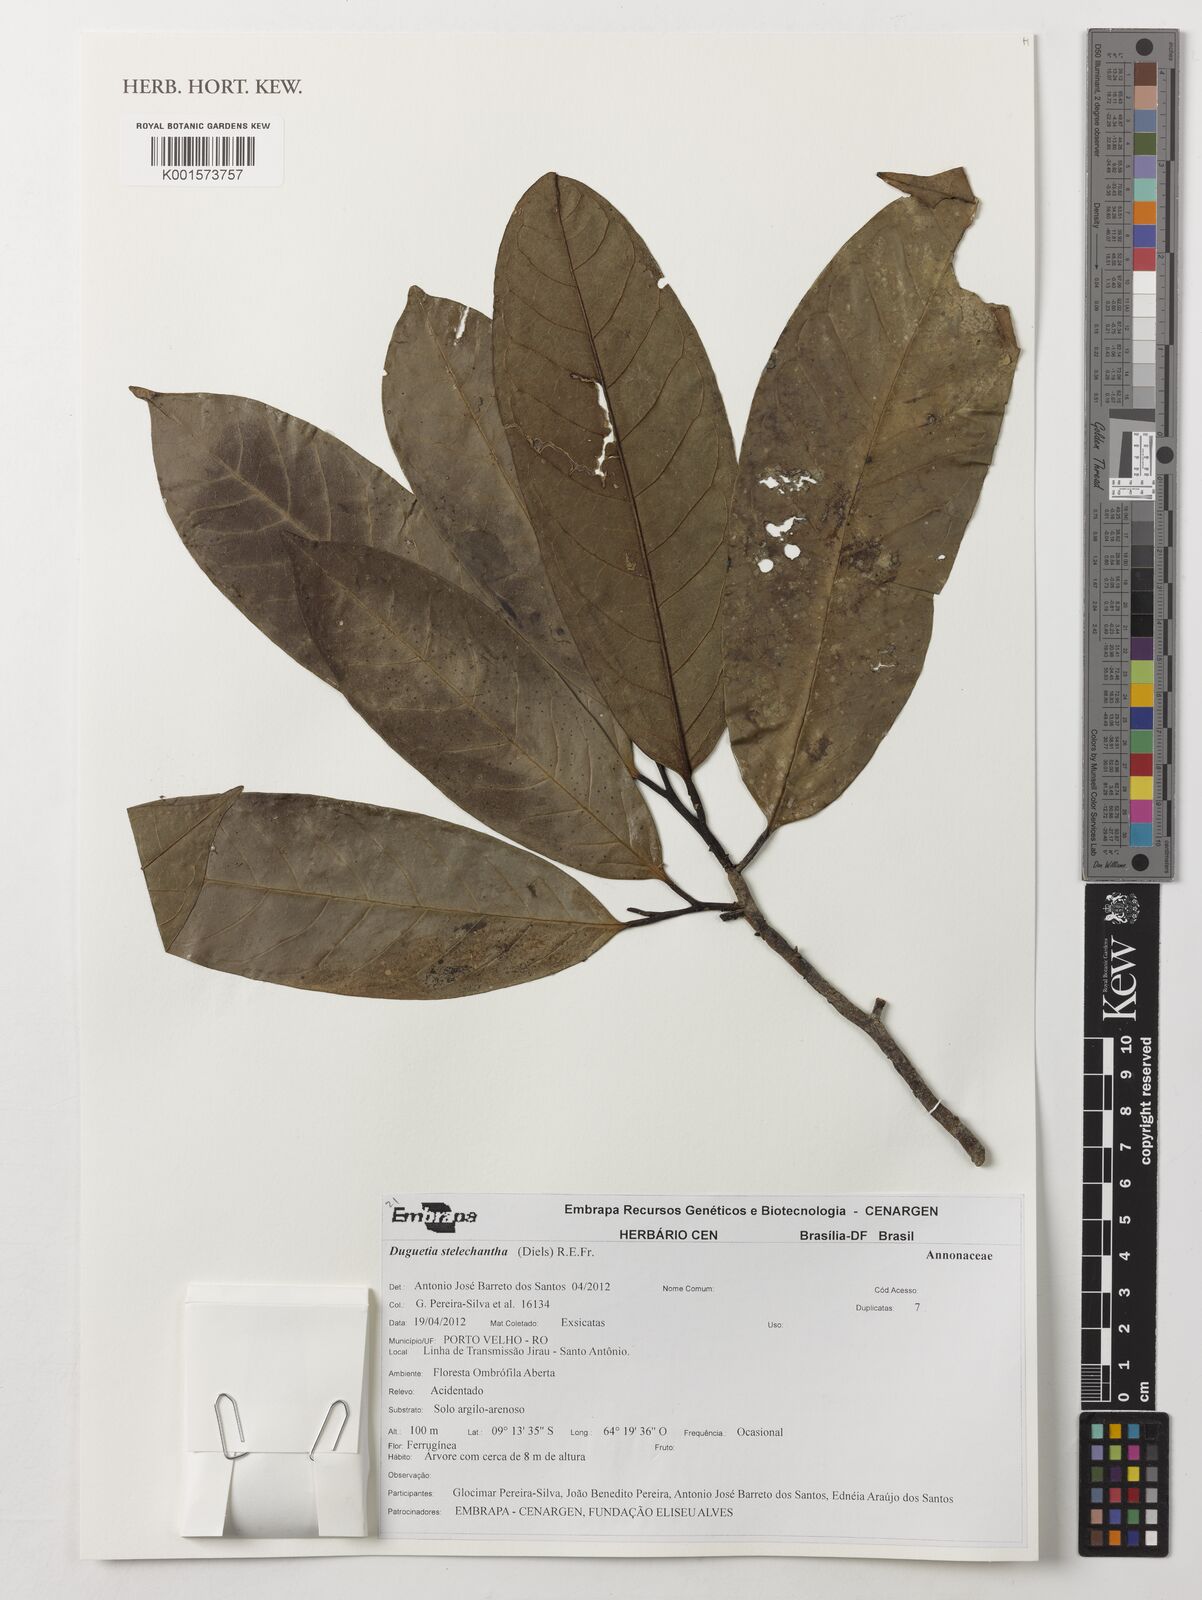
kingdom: Plantae
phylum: Tracheophyta
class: Magnoliopsida
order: Magnoliales
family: Annonaceae
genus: Duguetia
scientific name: Duguetia stelechantha
